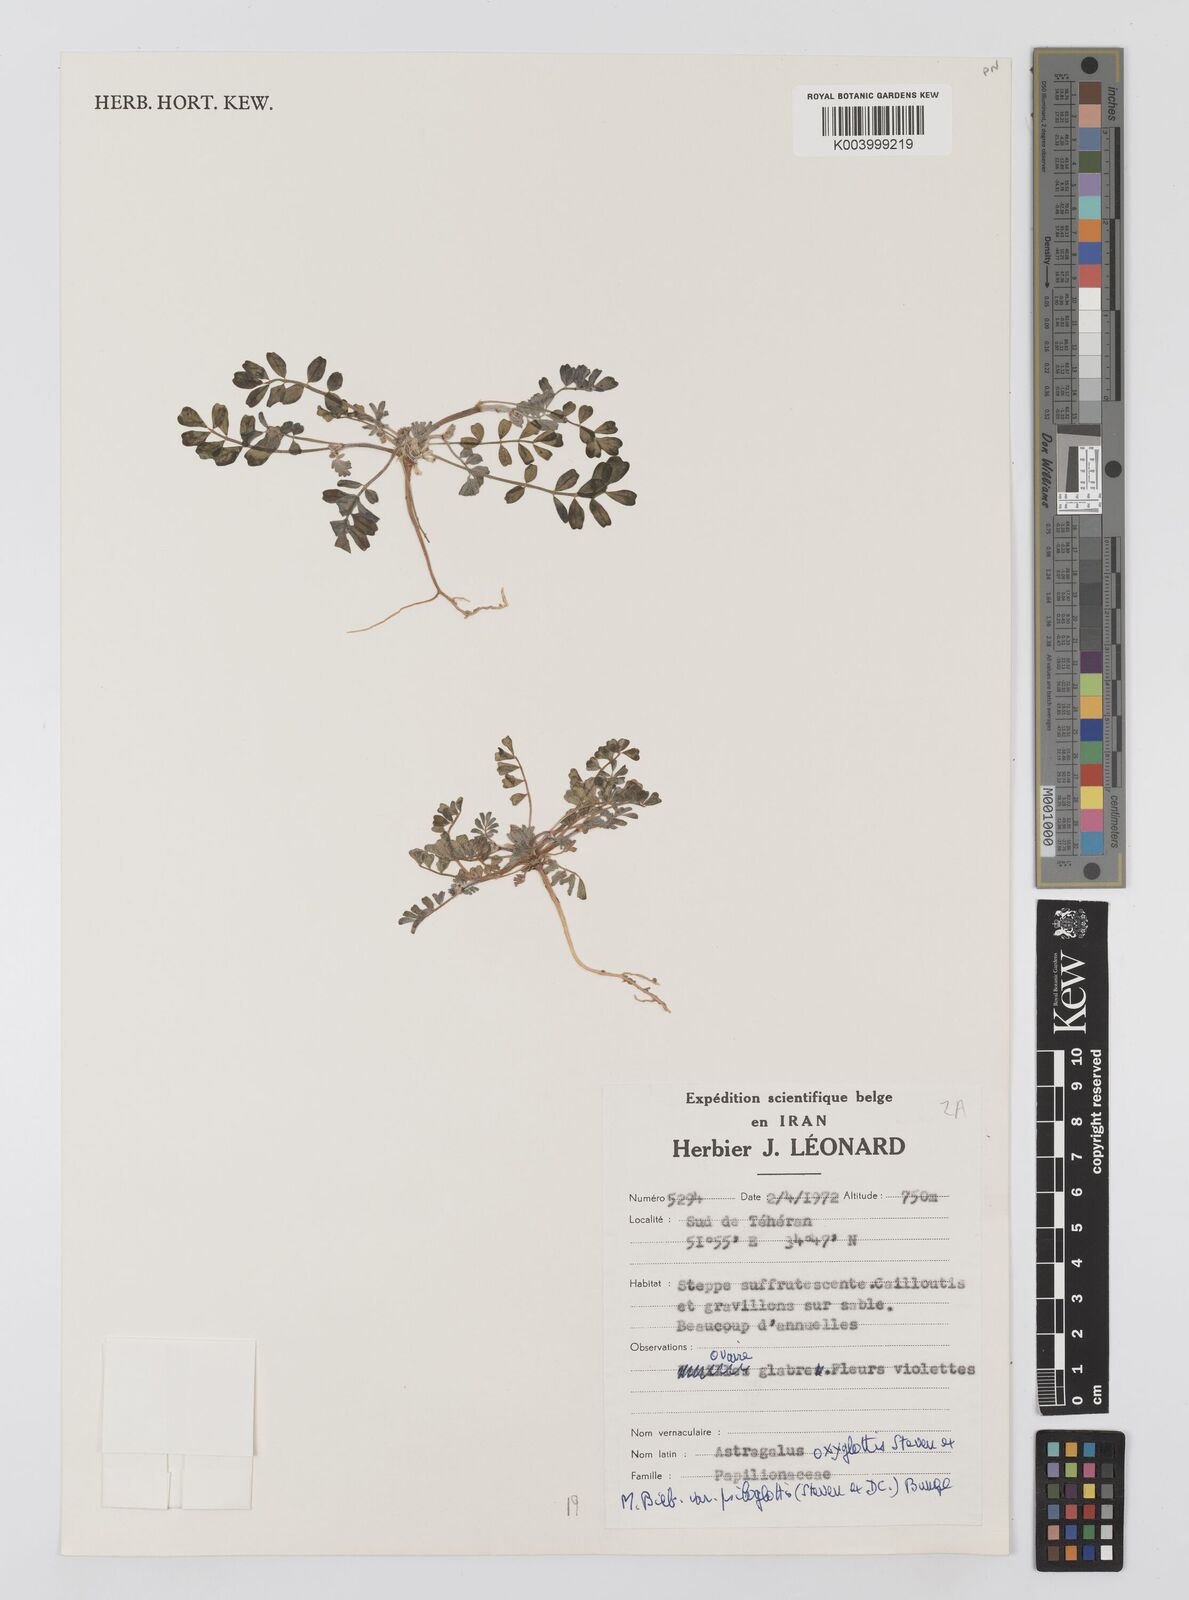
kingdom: Plantae
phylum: Tracheophyta
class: Magnoliopsida
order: Fabales
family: Fabaceae
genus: Astragalus
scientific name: Astragalus oxyglottis
